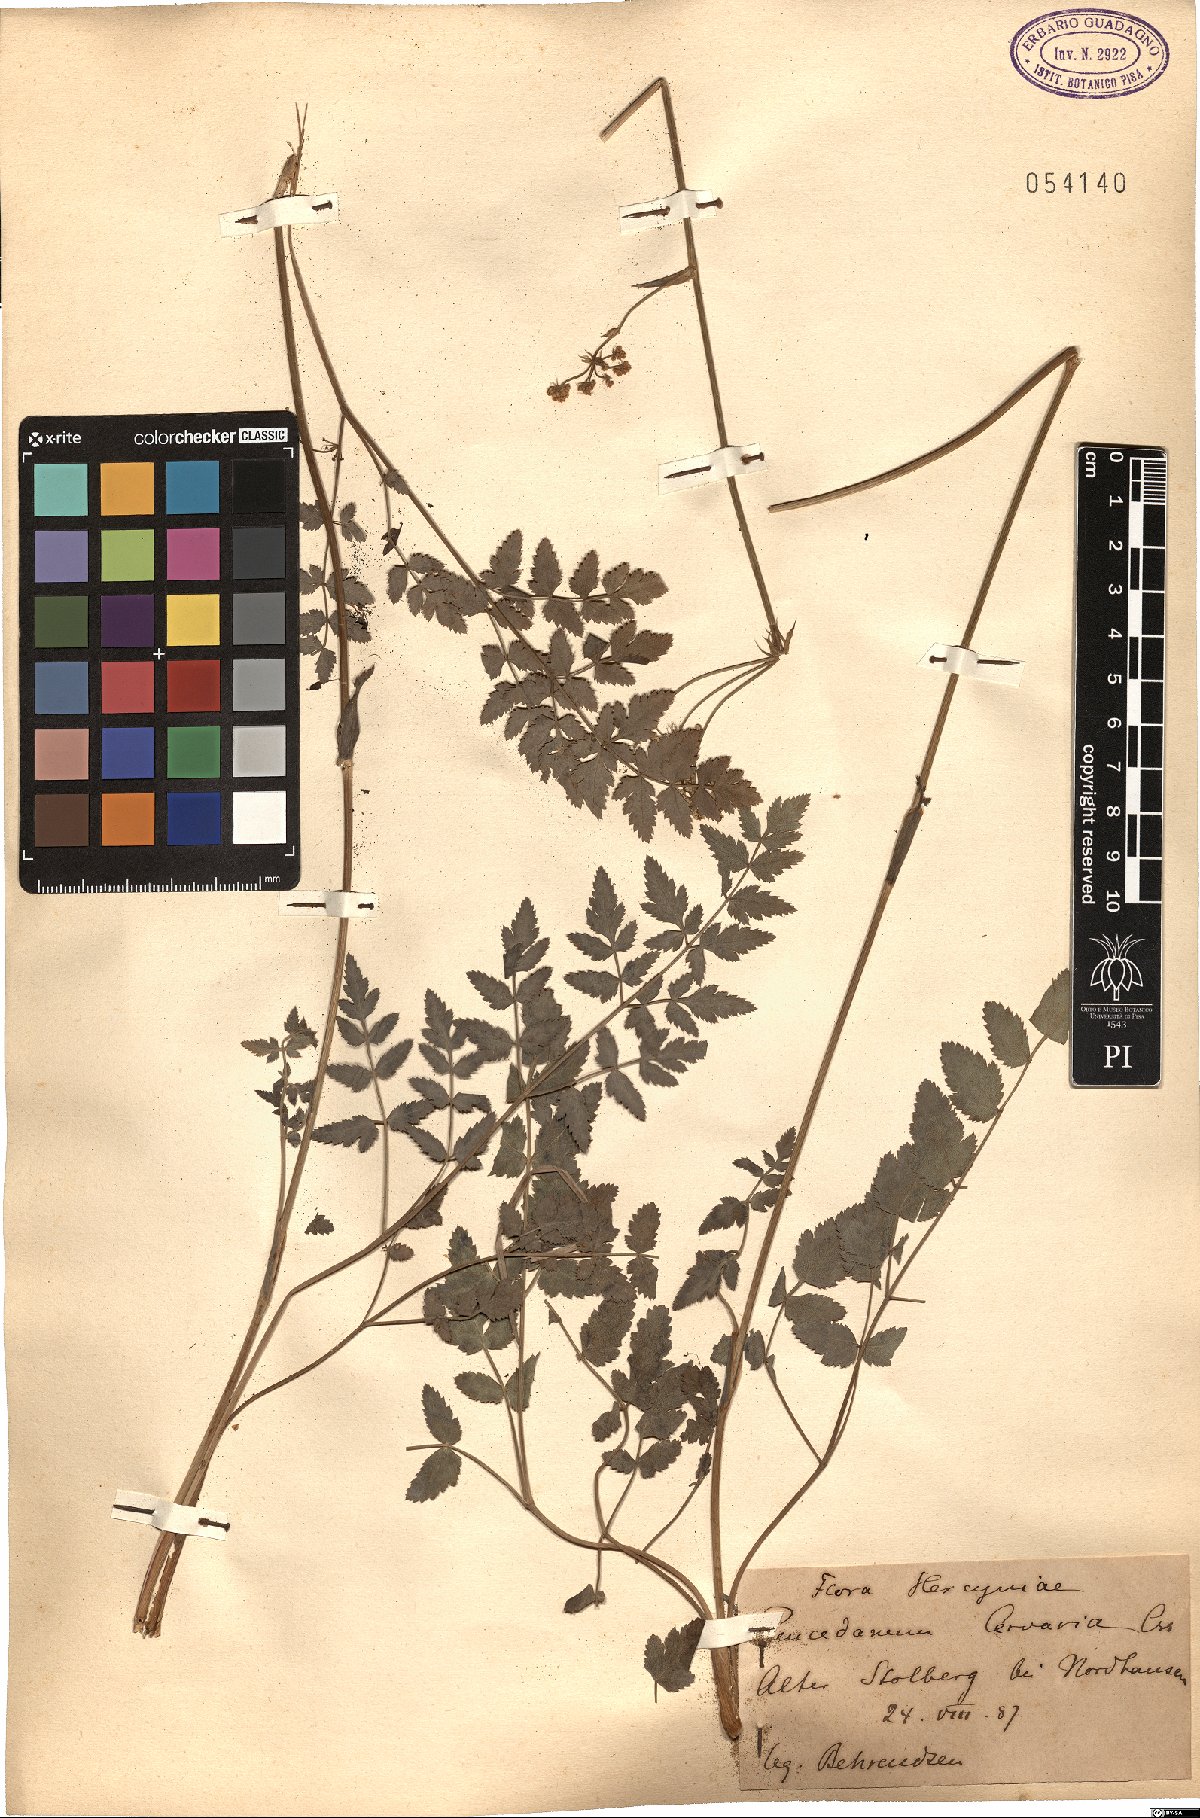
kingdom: Plantae
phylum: Tracheophyta
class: Magnoliopsida
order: Apiales
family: Apiaceae
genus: Cervaria
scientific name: Cervaria rivini
